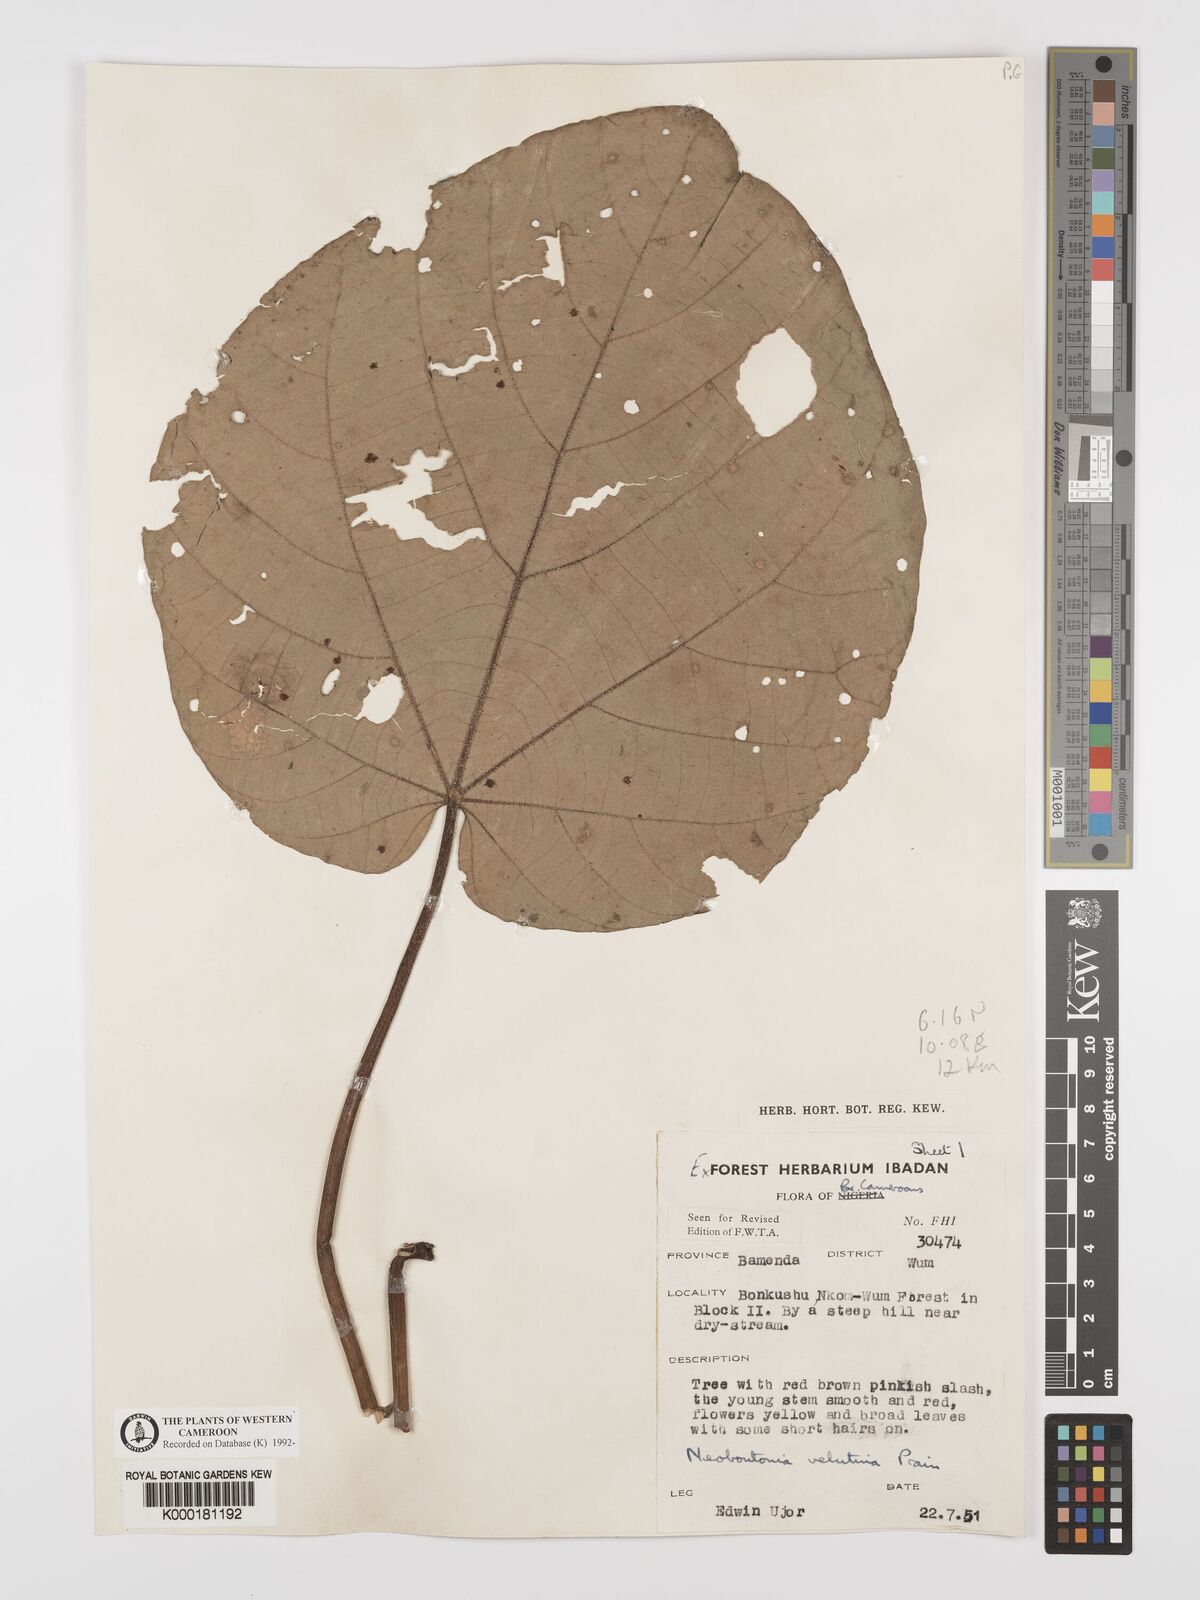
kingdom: Plantae
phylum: Tracheophyta
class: Magnoliopsida
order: Malpighiales
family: Euphorbiaceae
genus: Neoboutonia
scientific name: Neoboutonia
